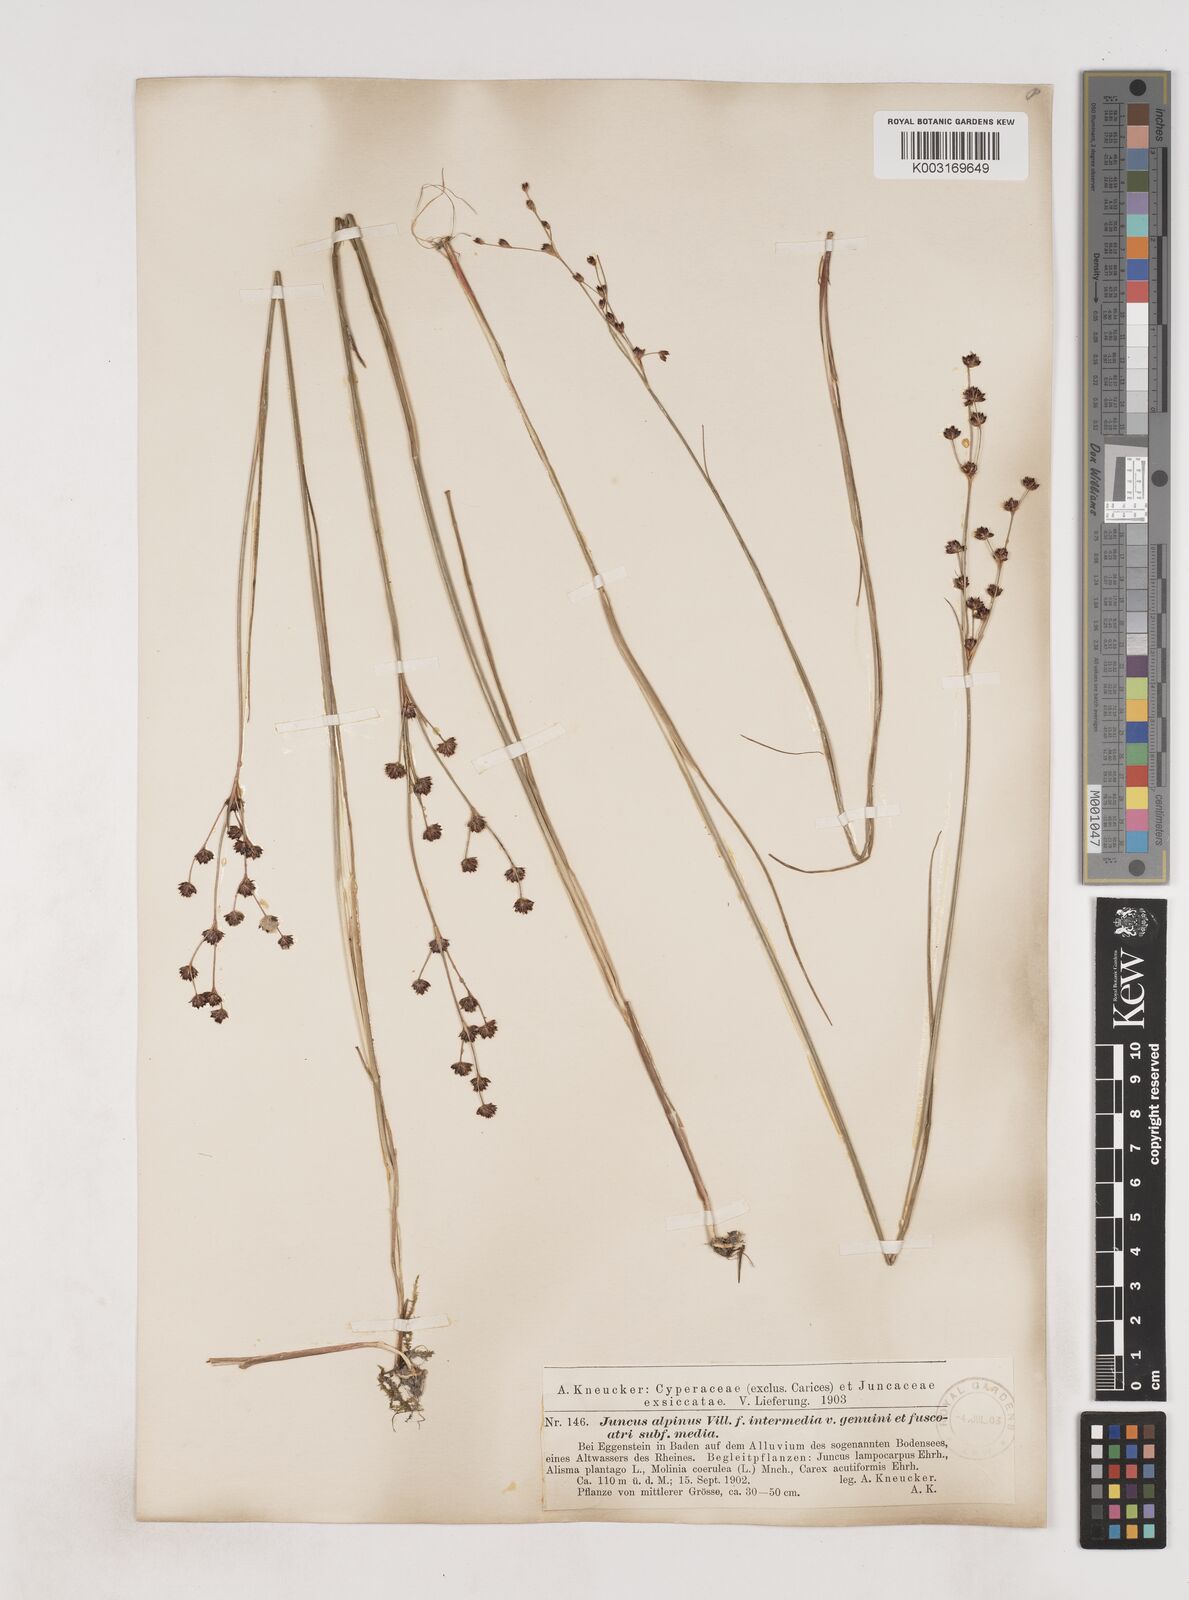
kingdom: Plantae
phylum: Tracheophyta
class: Liliopsida
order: Poales
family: Juncaceae
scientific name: Juncaceae
